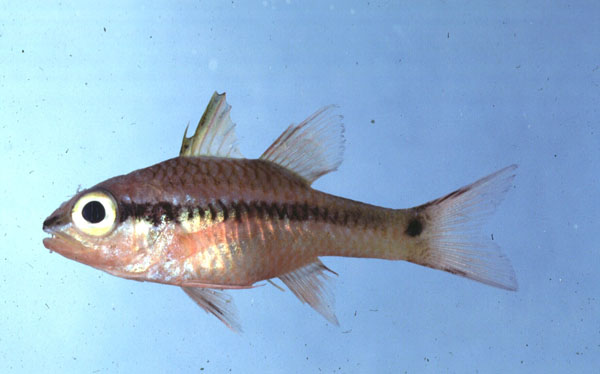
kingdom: Animalia
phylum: Chordata
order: Perciformes
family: Apogonidae
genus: Pristiapogon
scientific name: Pristiapogon kallopterus
